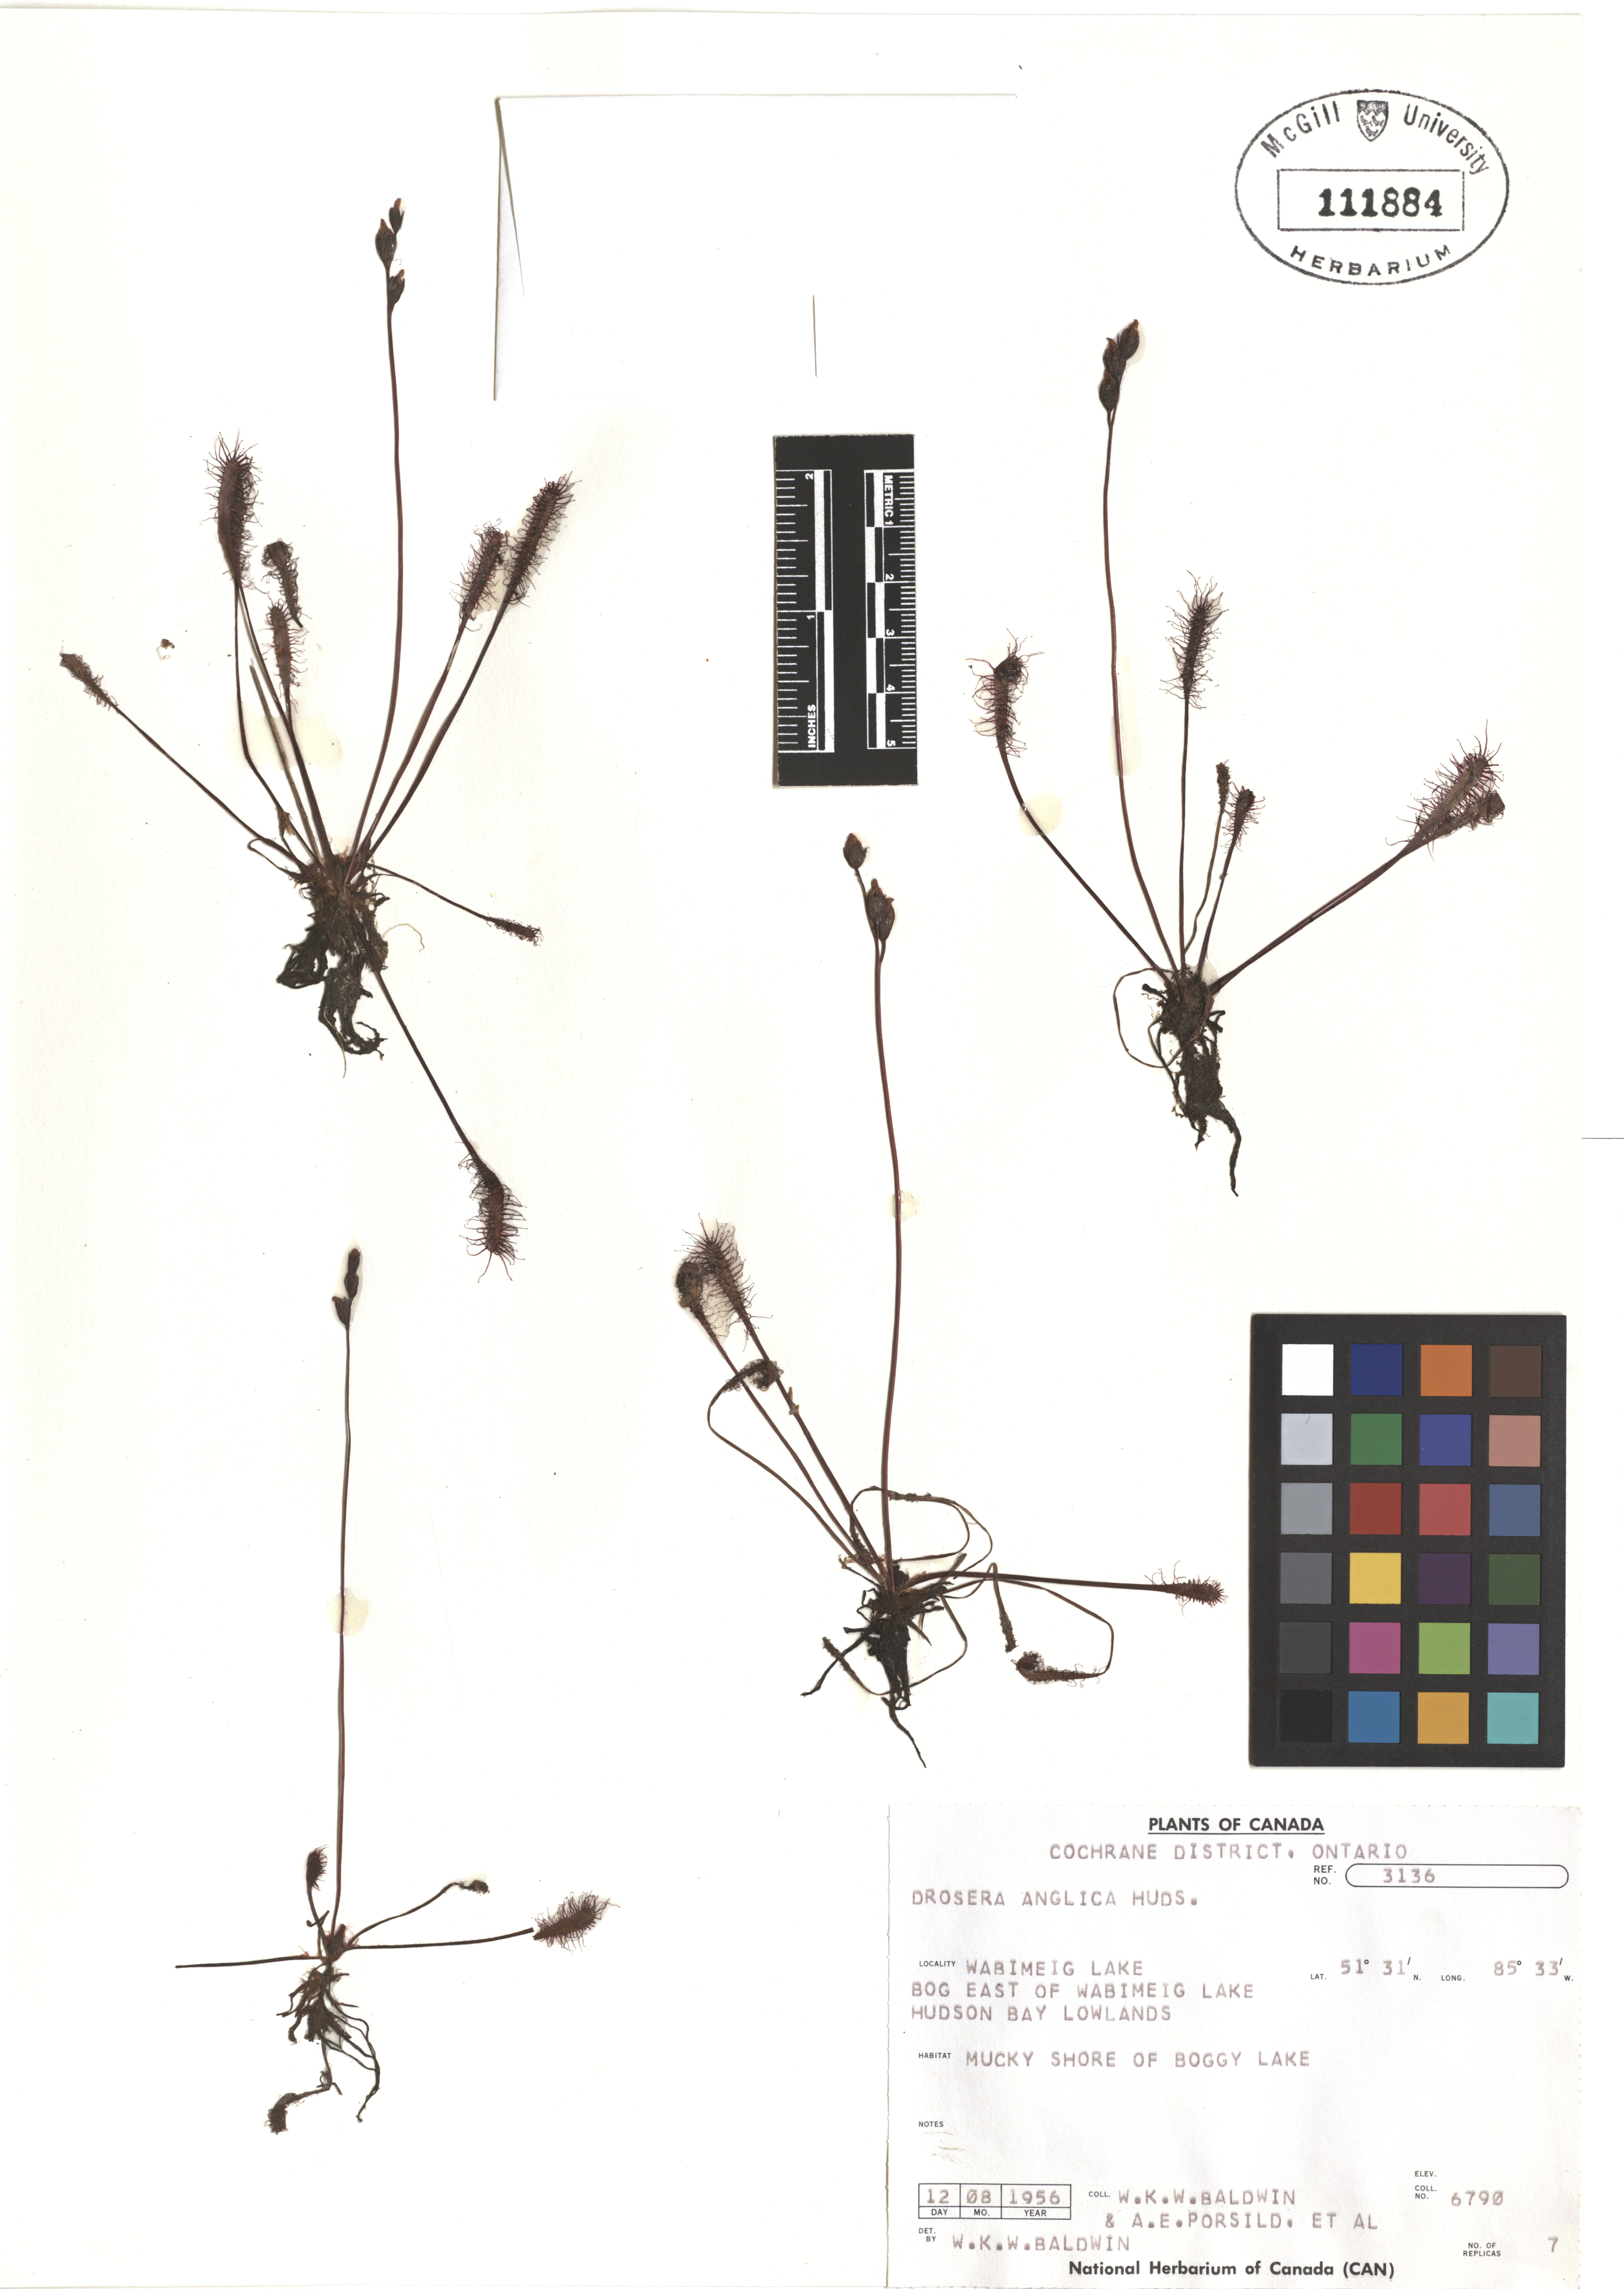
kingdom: Plantae
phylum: Tracheophyta
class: Magnoliopsida
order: Caryophyllales
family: Droseraceae
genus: Drosera
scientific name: Drosera anglica
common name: Great sundew
